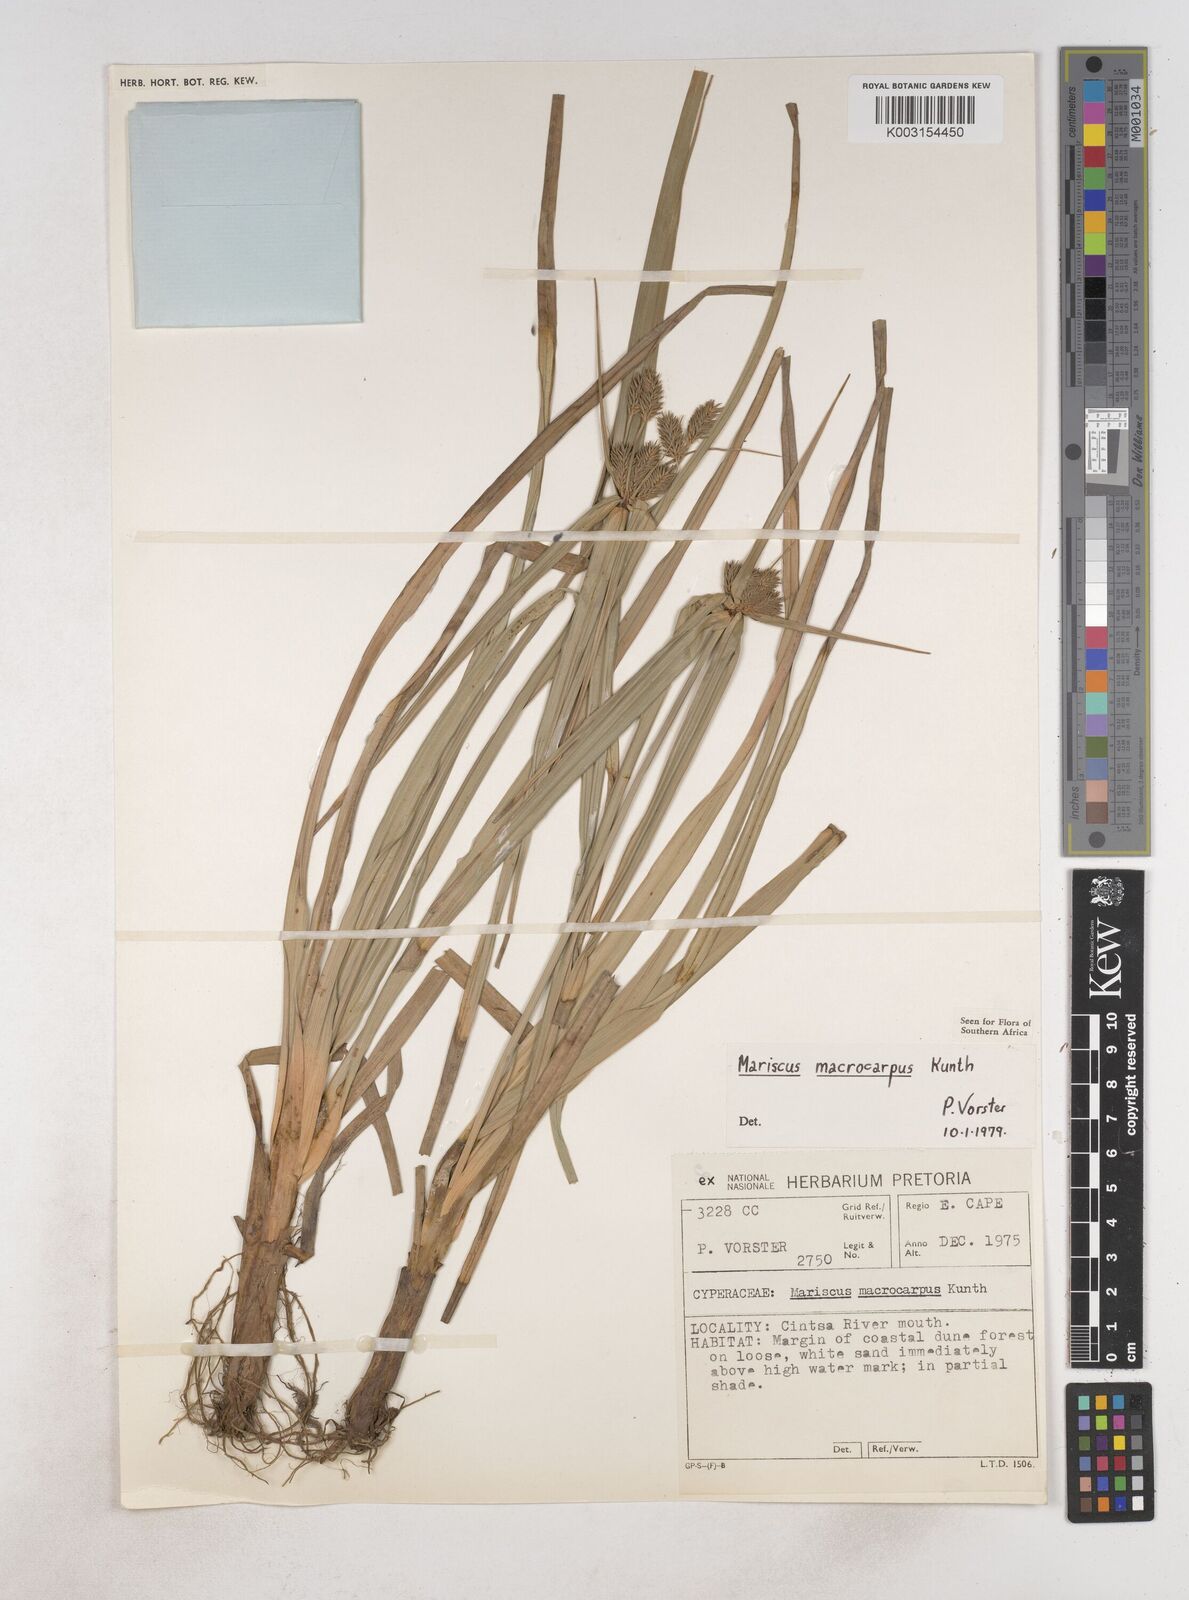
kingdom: Plantae
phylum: Tracheophyta
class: Liliopsida
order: Poales
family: Cyperaceae
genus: Cyperus
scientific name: Cyperus macrocarpus
